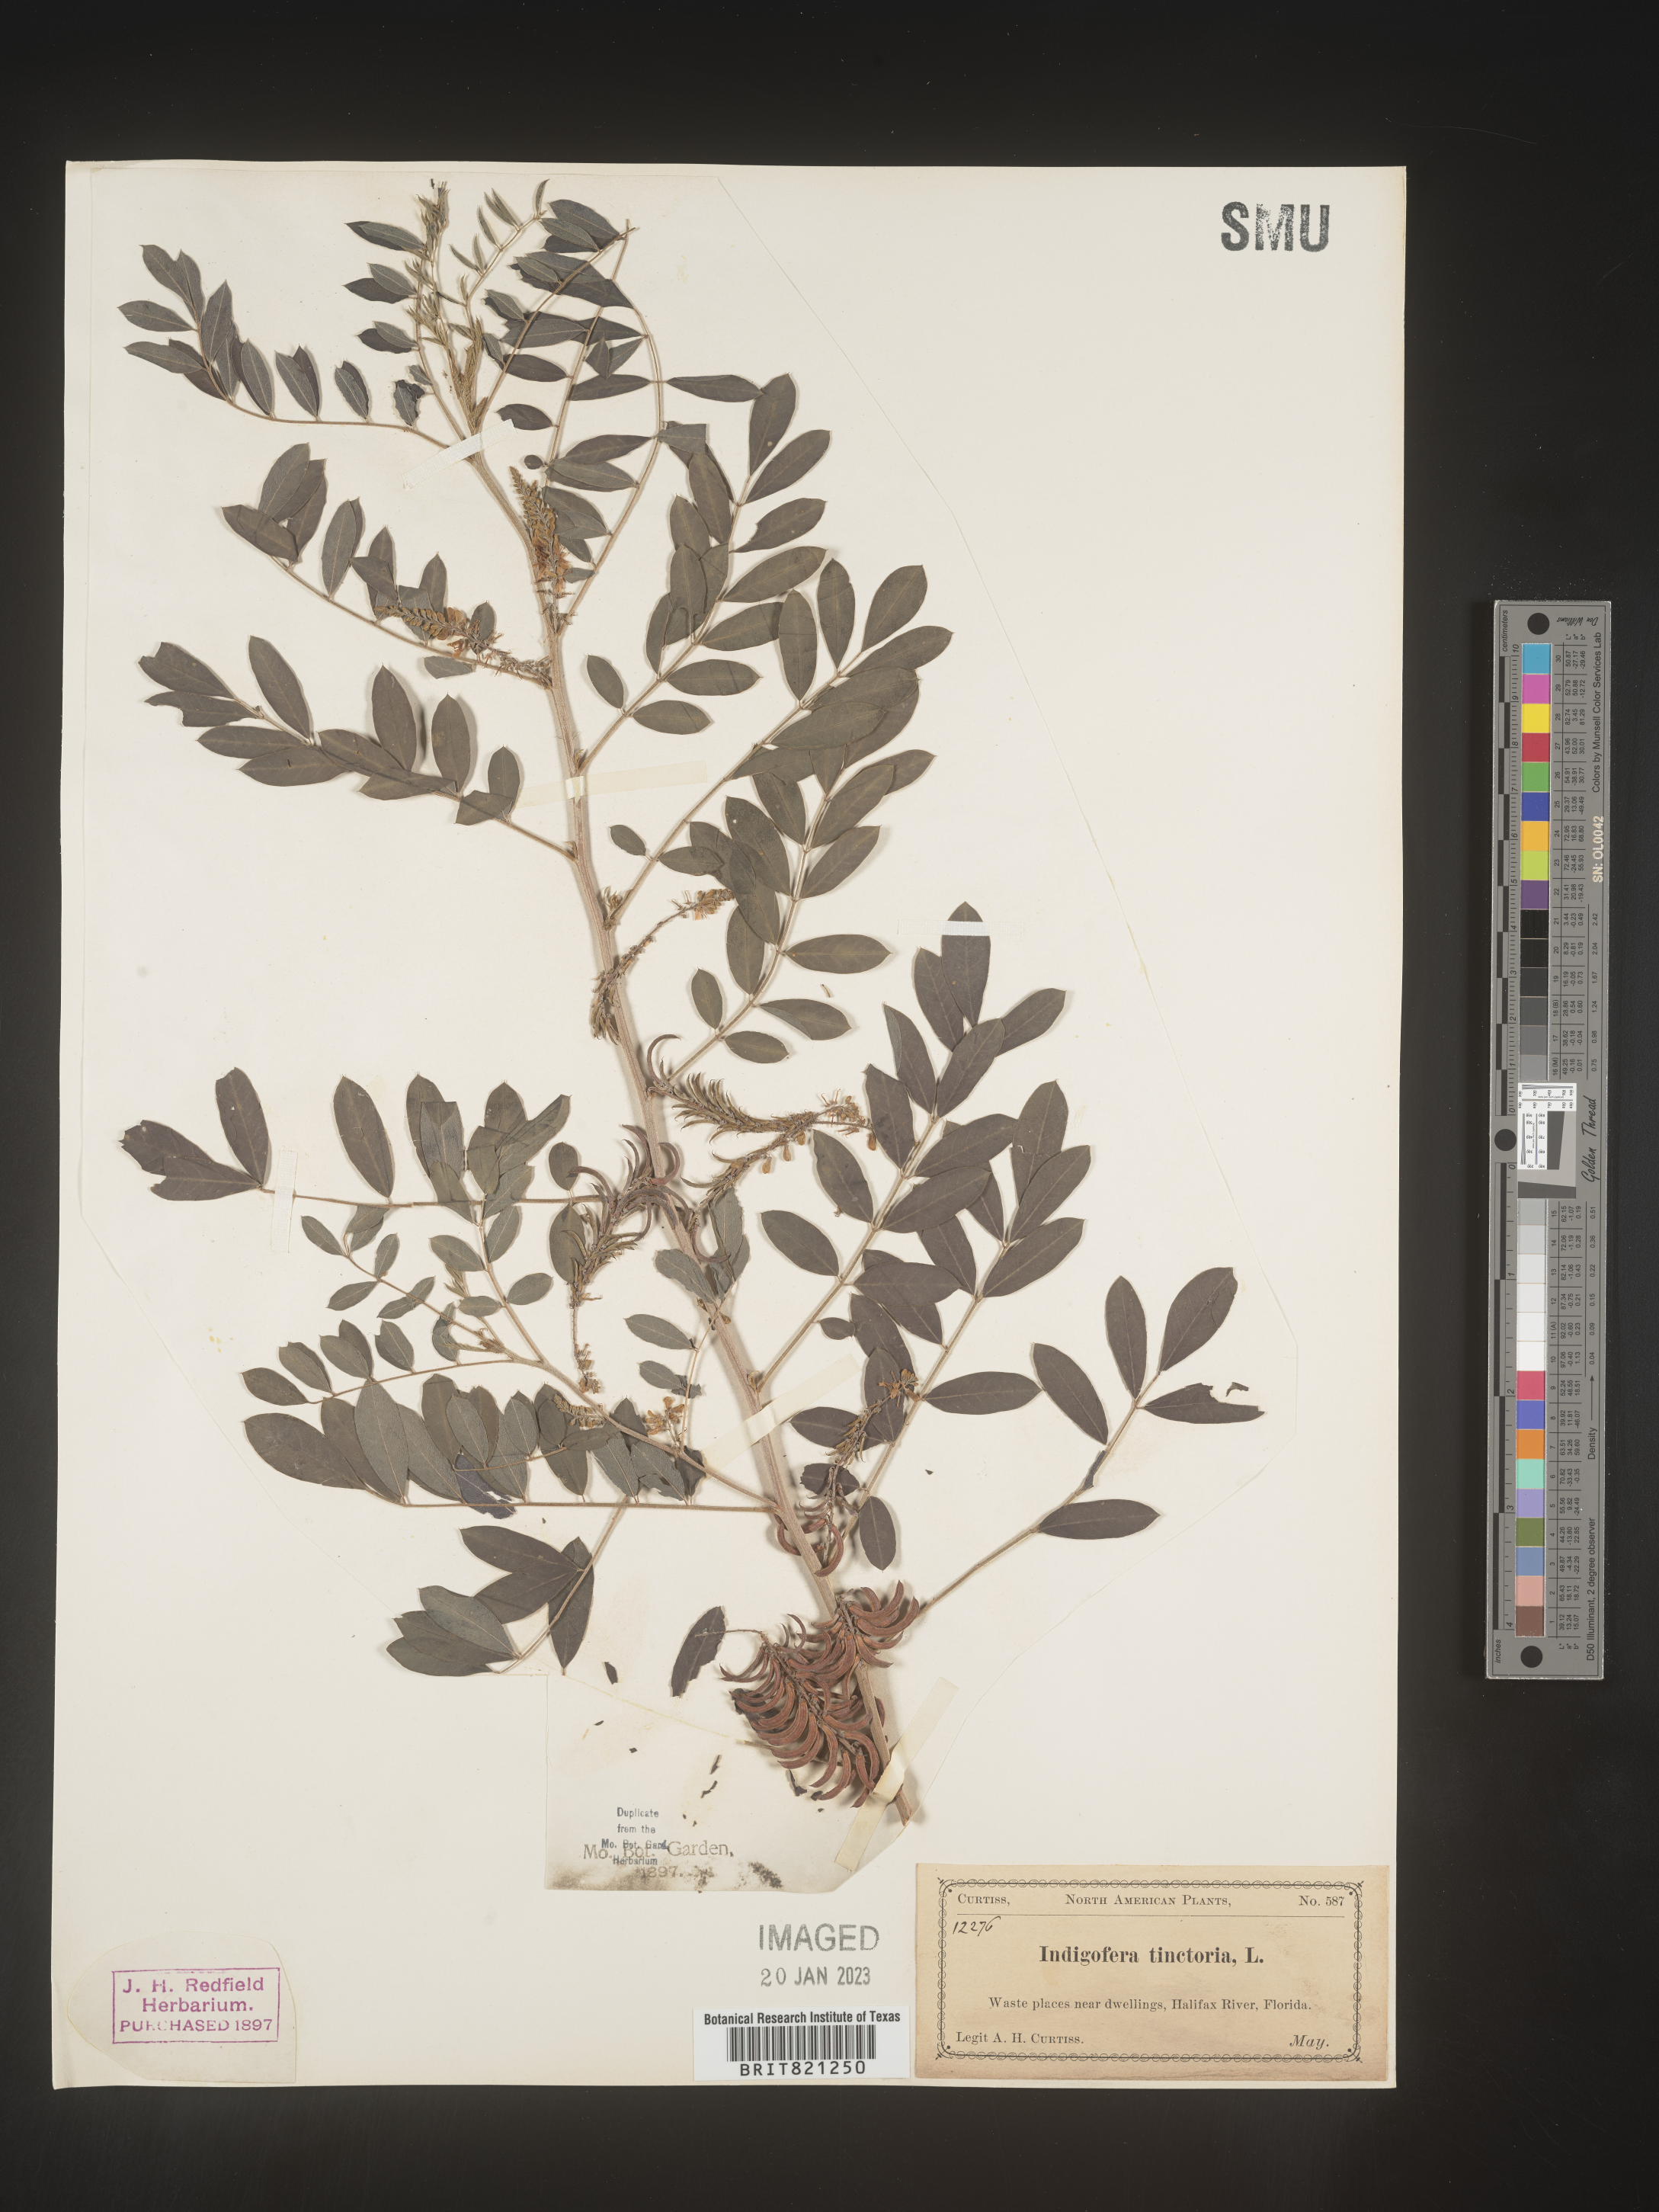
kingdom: Plantae
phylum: Tracheophyta
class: Magnoliopsida
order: Fabales
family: Fabaceae
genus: Indigofera
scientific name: Indigofera
